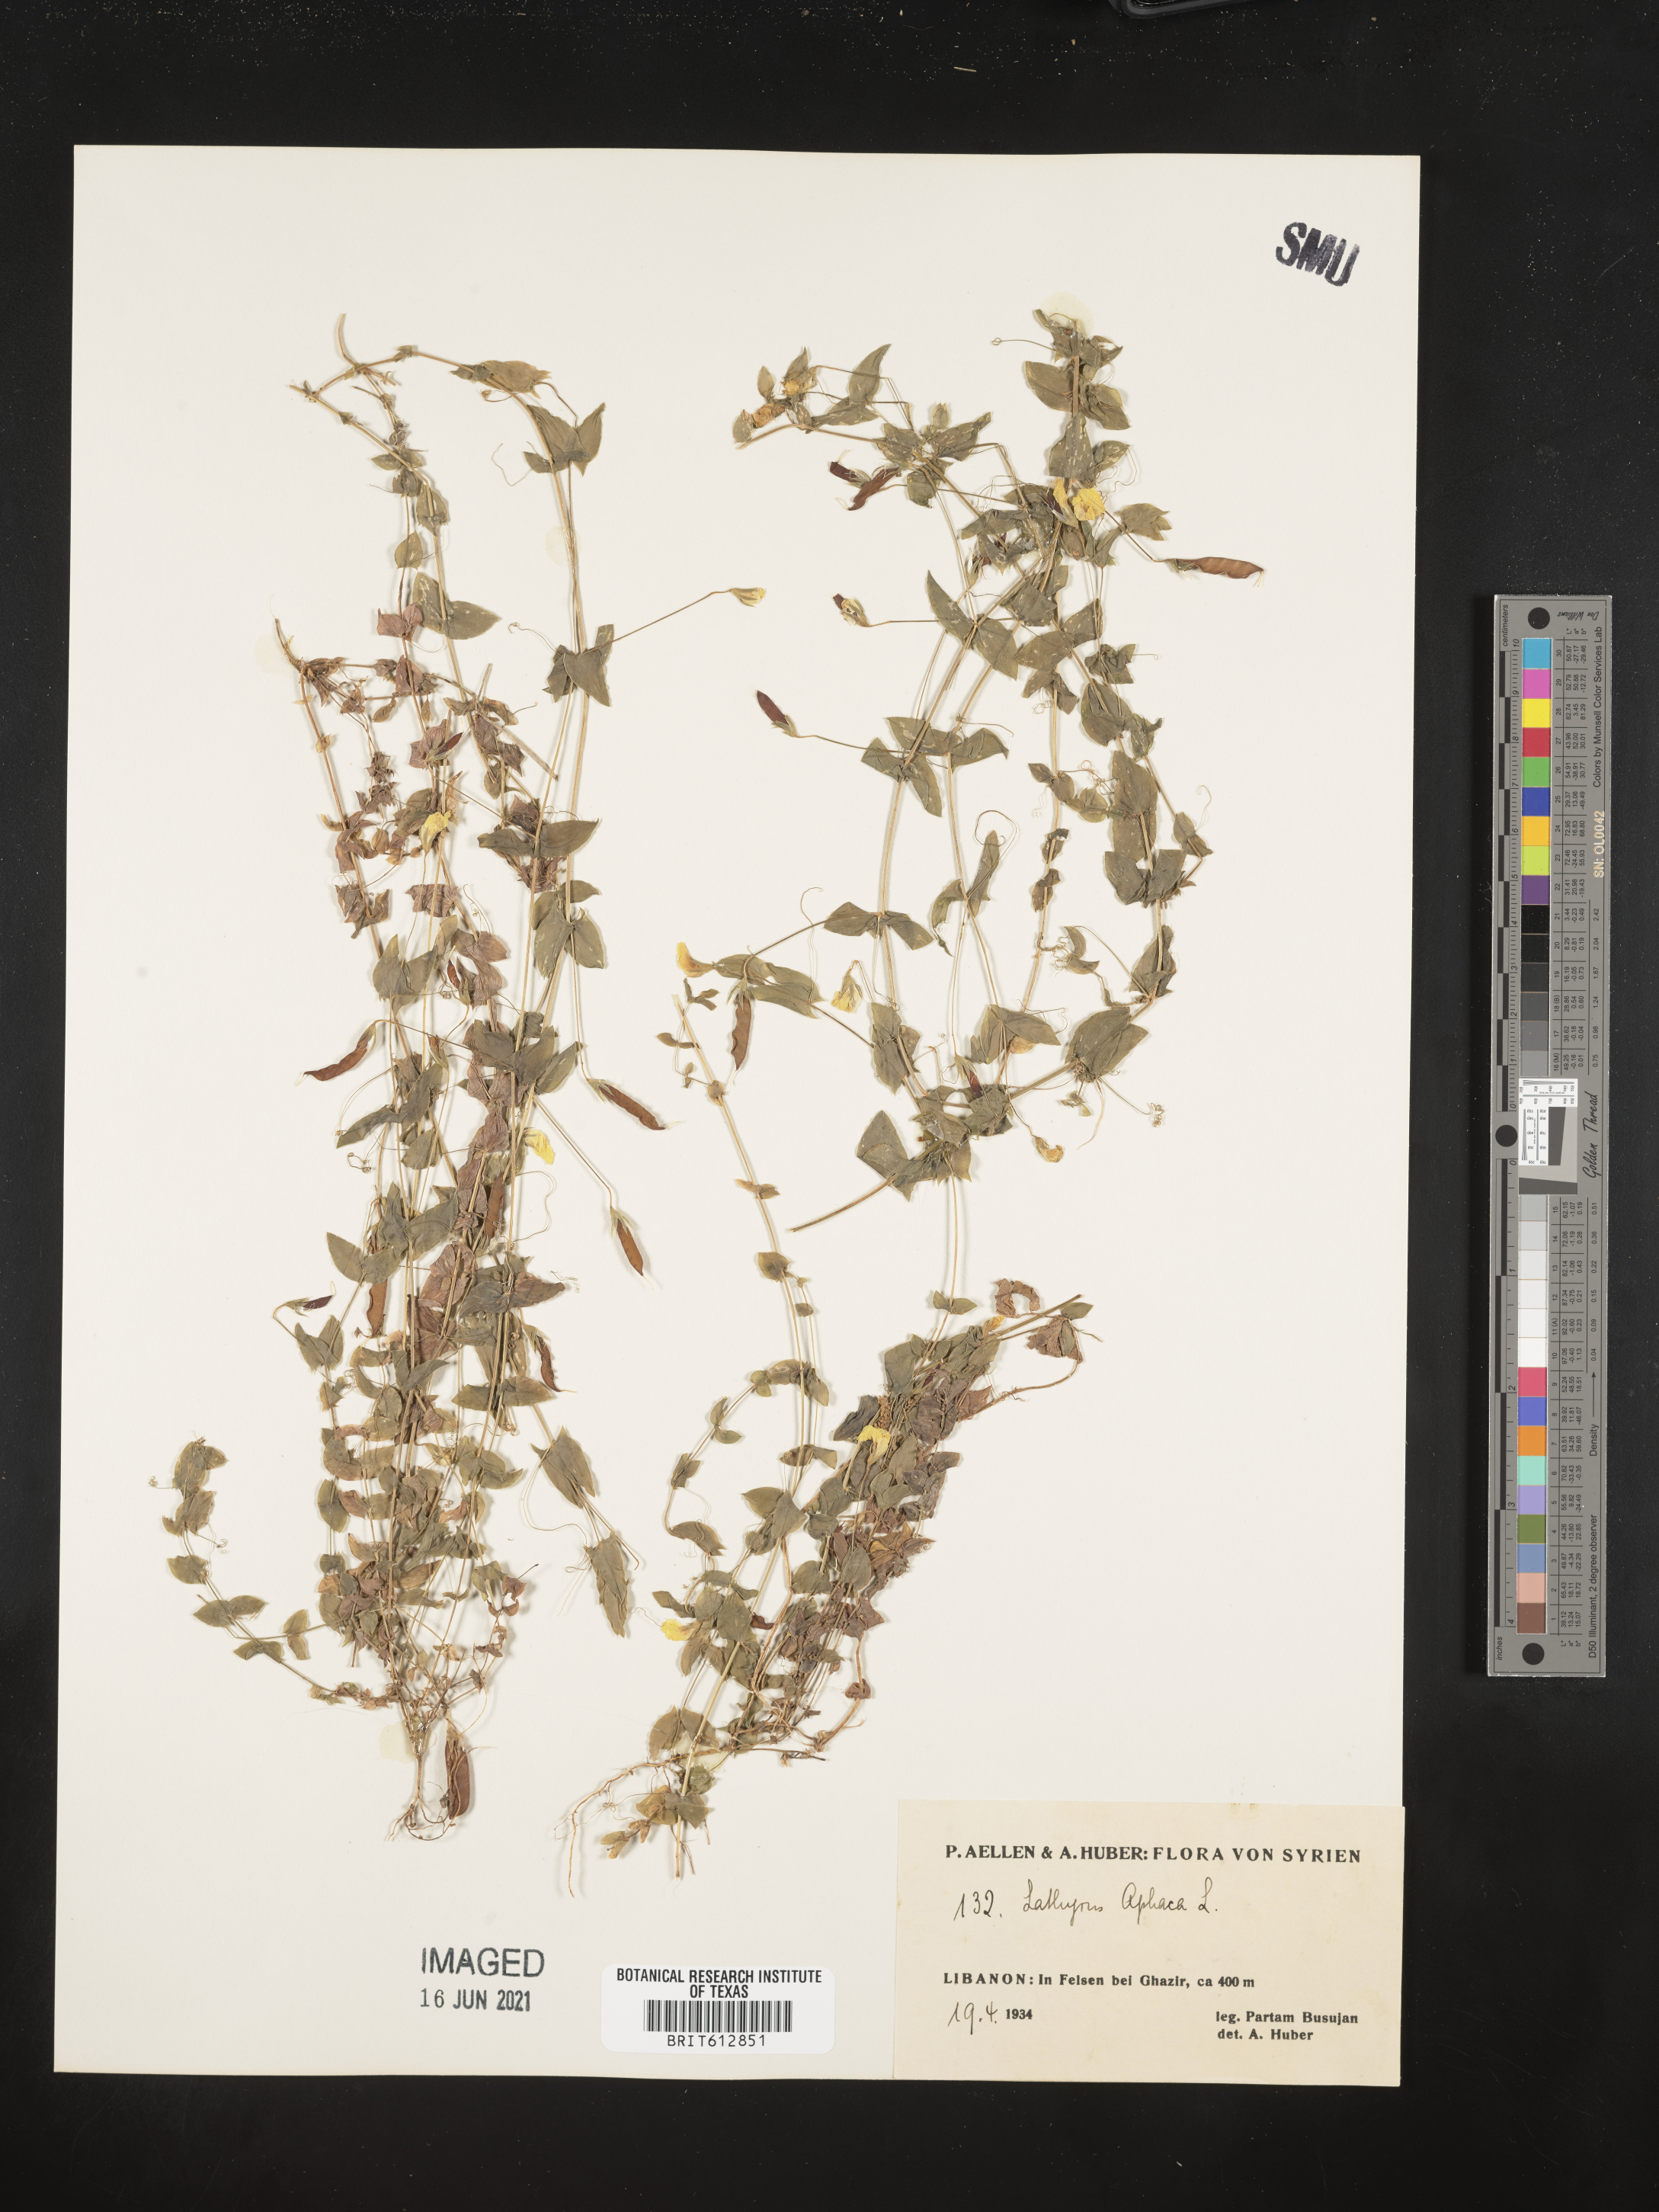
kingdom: Plantae
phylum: Tracheophyta
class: Magnoliopsida
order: Fabales
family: Fabaceae
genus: Lathyrus
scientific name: Lathyrus aphaca
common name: Yellow vetchling
